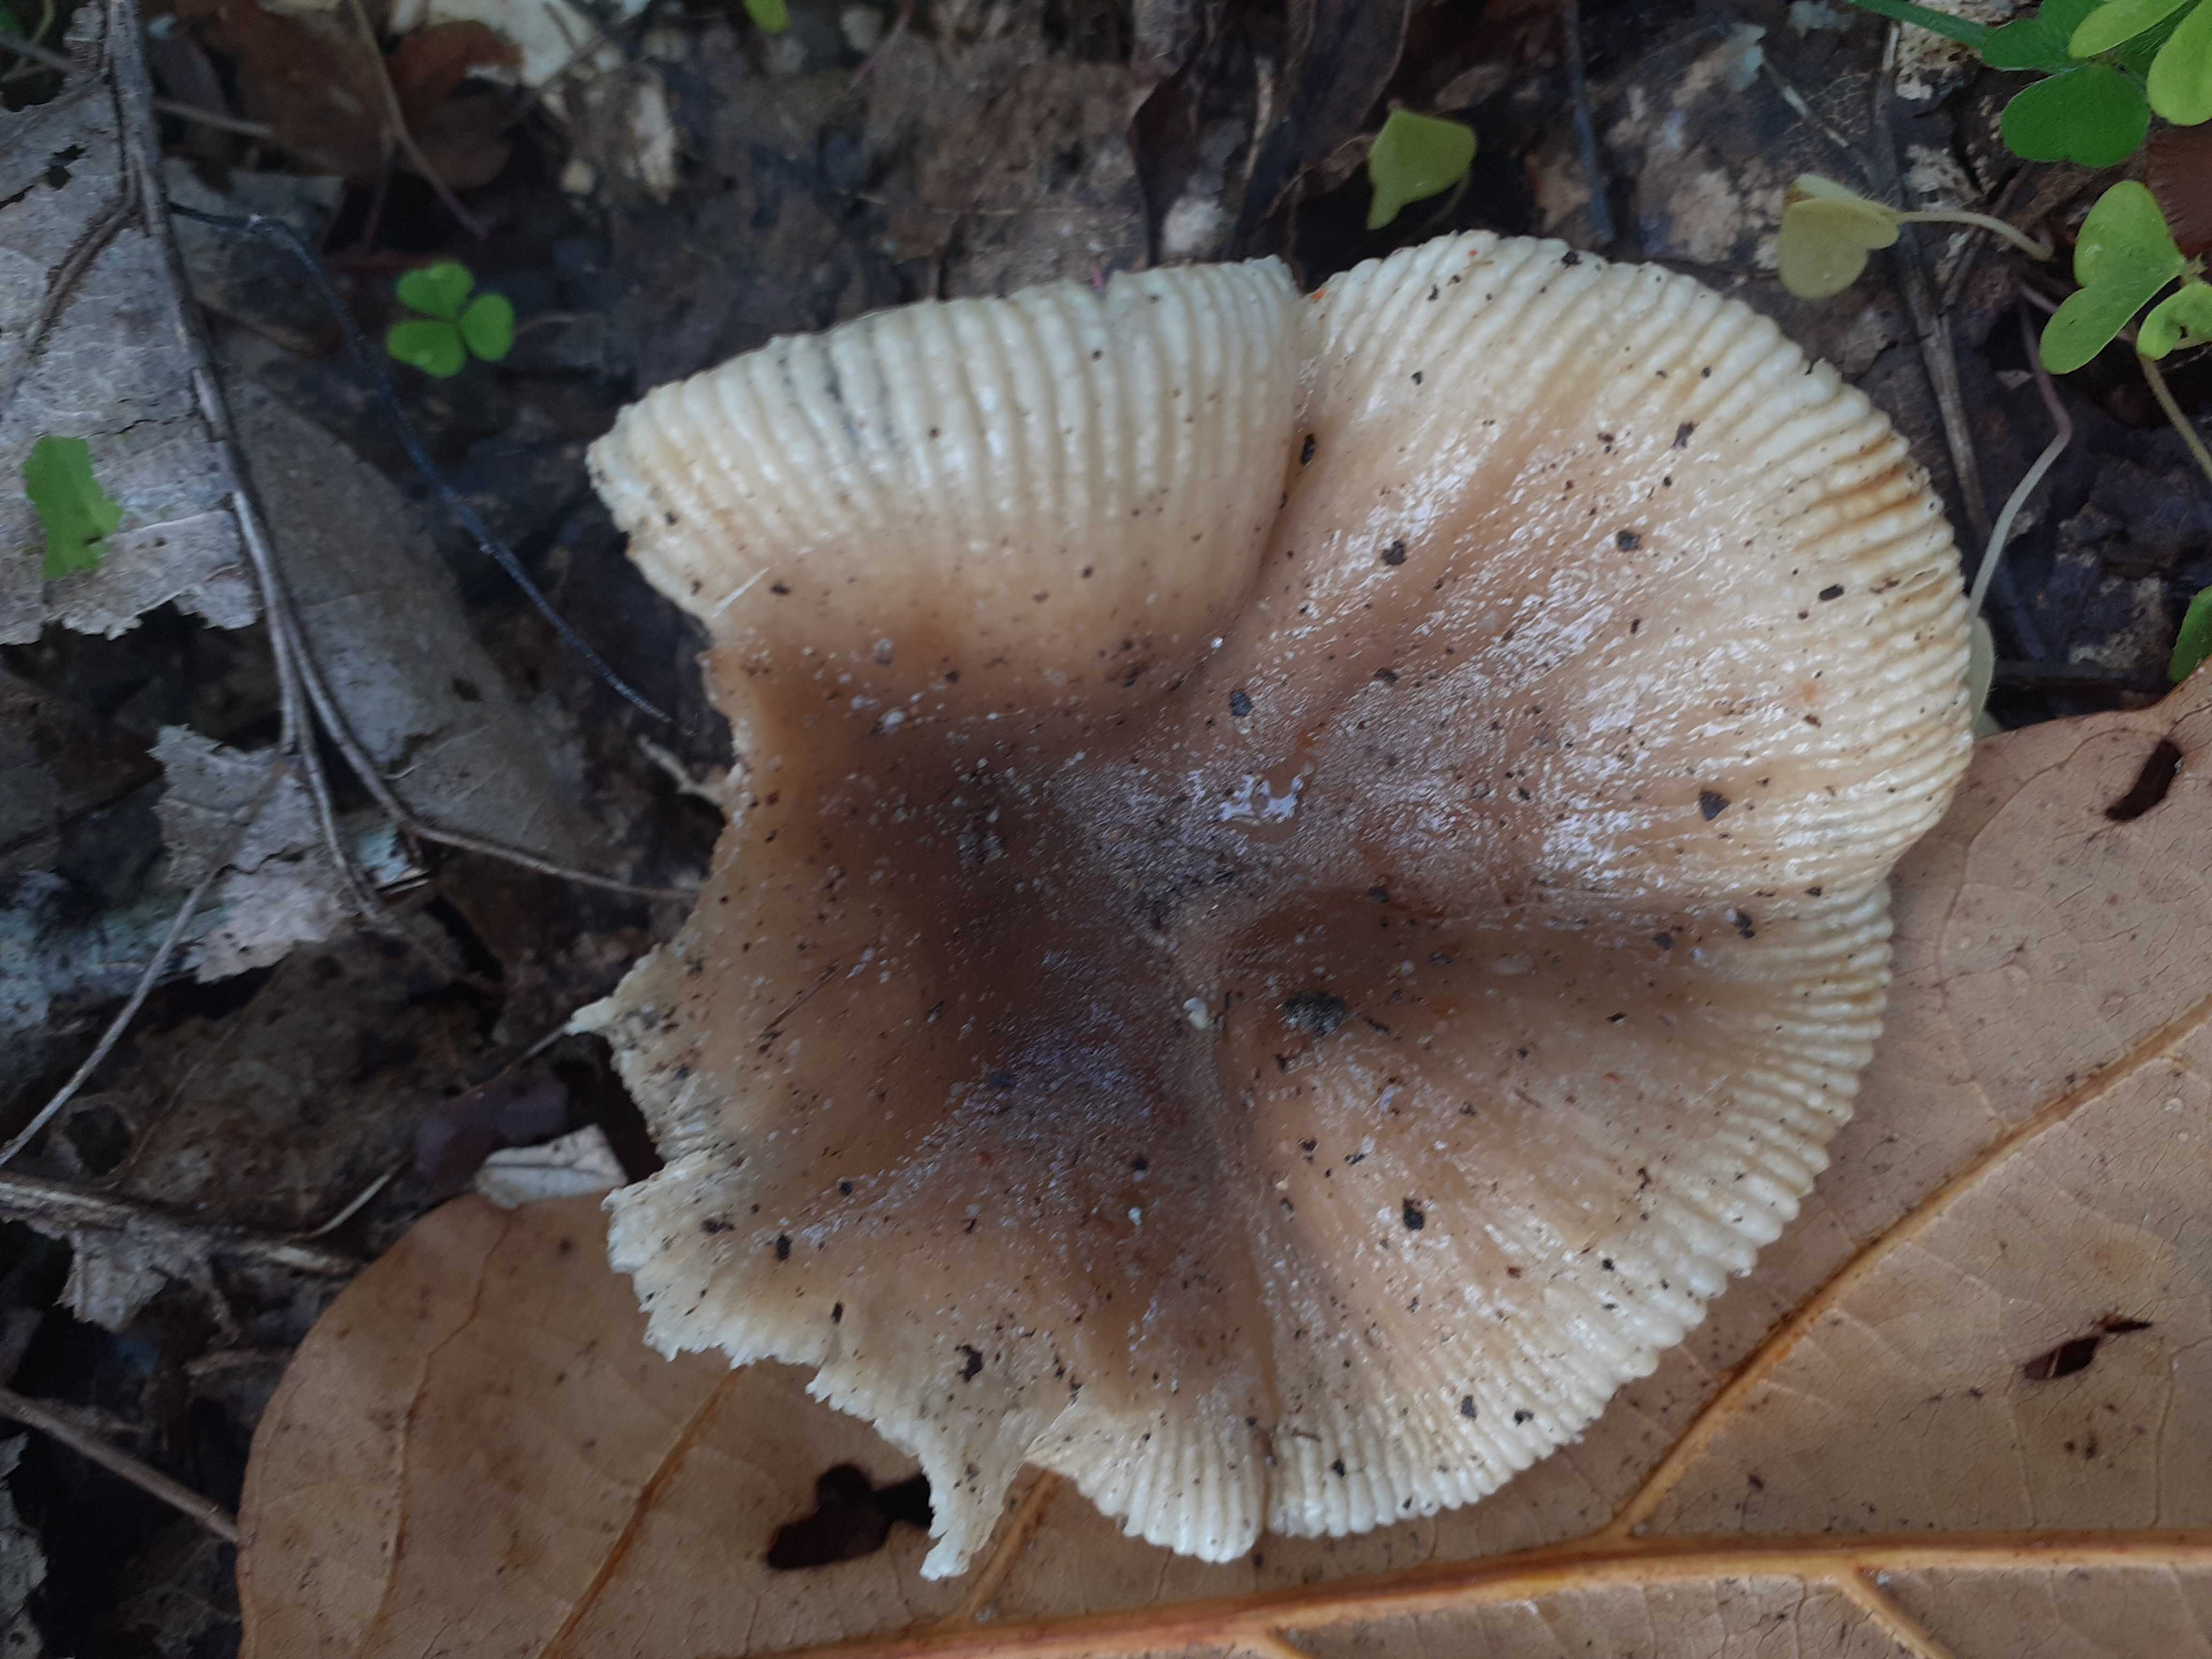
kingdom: Fungi
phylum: Basidiomycota
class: Agaricomycetes
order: Russulales
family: Russulaceae
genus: Russula
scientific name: Russula recondita
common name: mild kam-skørhat
